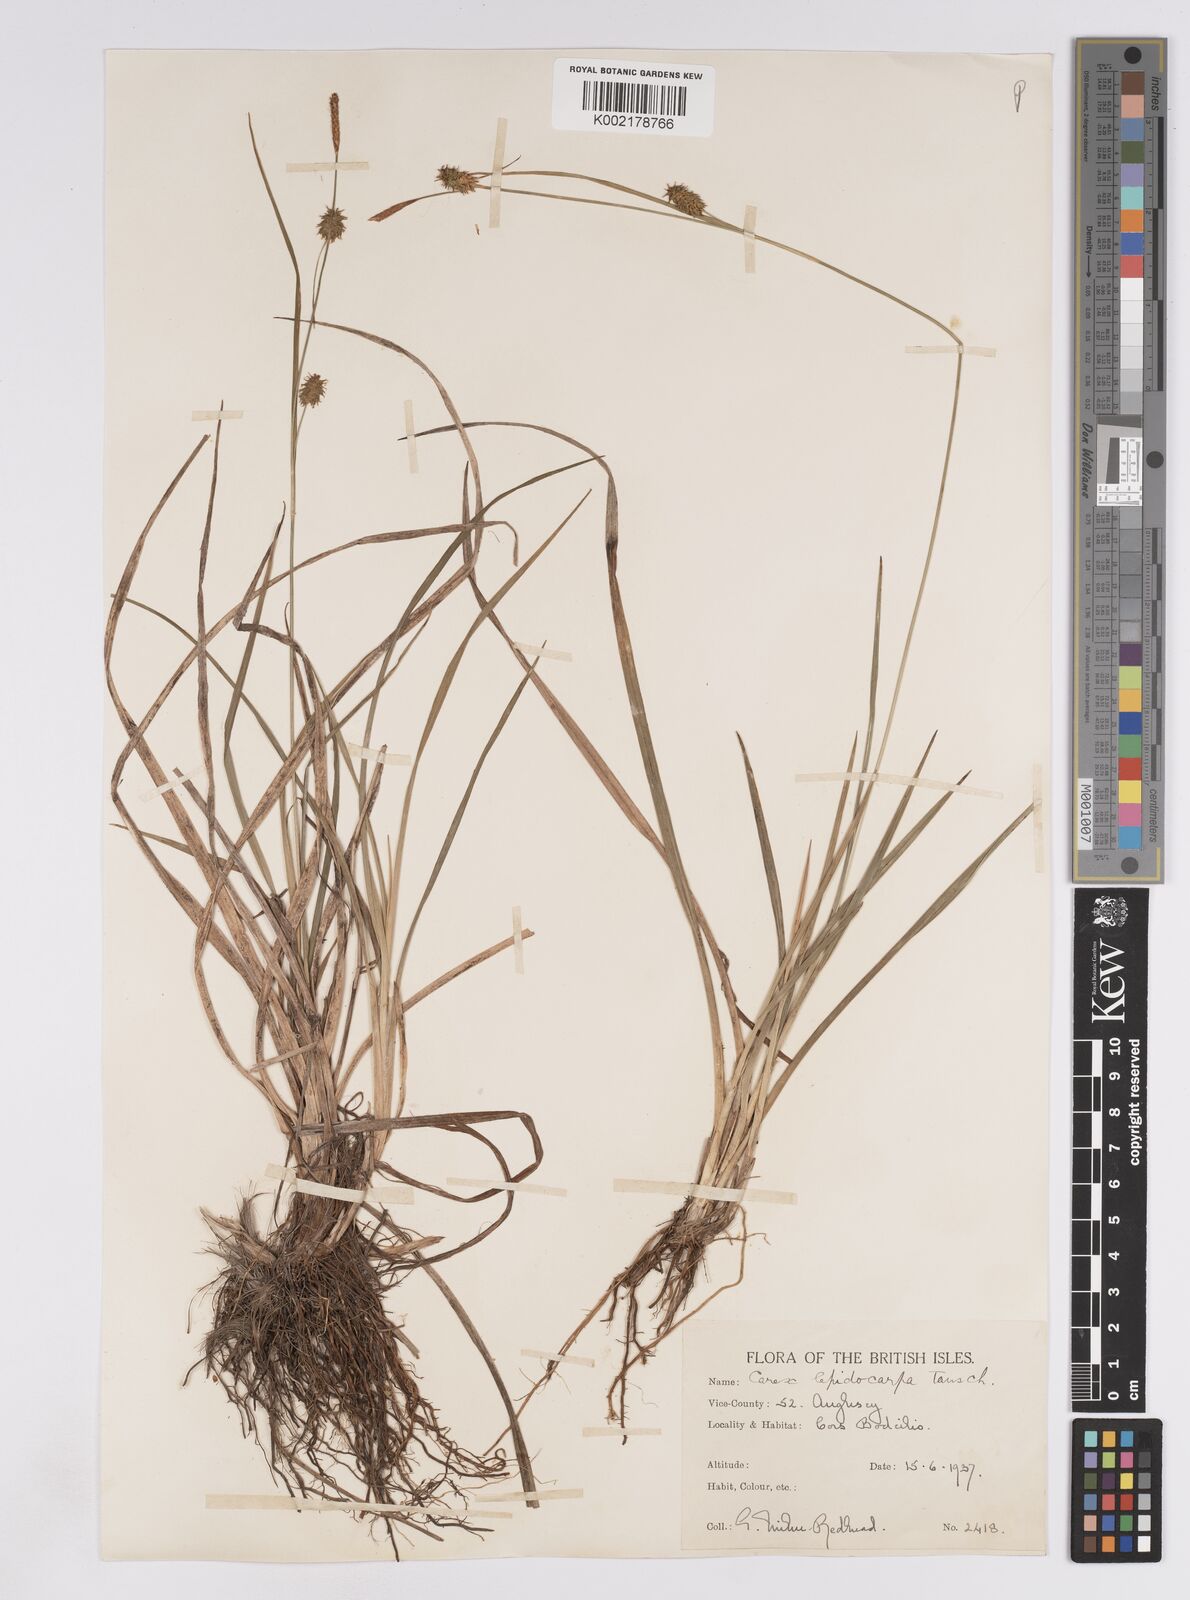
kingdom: Plantae
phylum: Tracheophyta
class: Liliopsida
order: Poales
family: Cyperaceae
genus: Carex
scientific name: Carex lepidocarpa
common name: Long-stalked yellow-sedge
